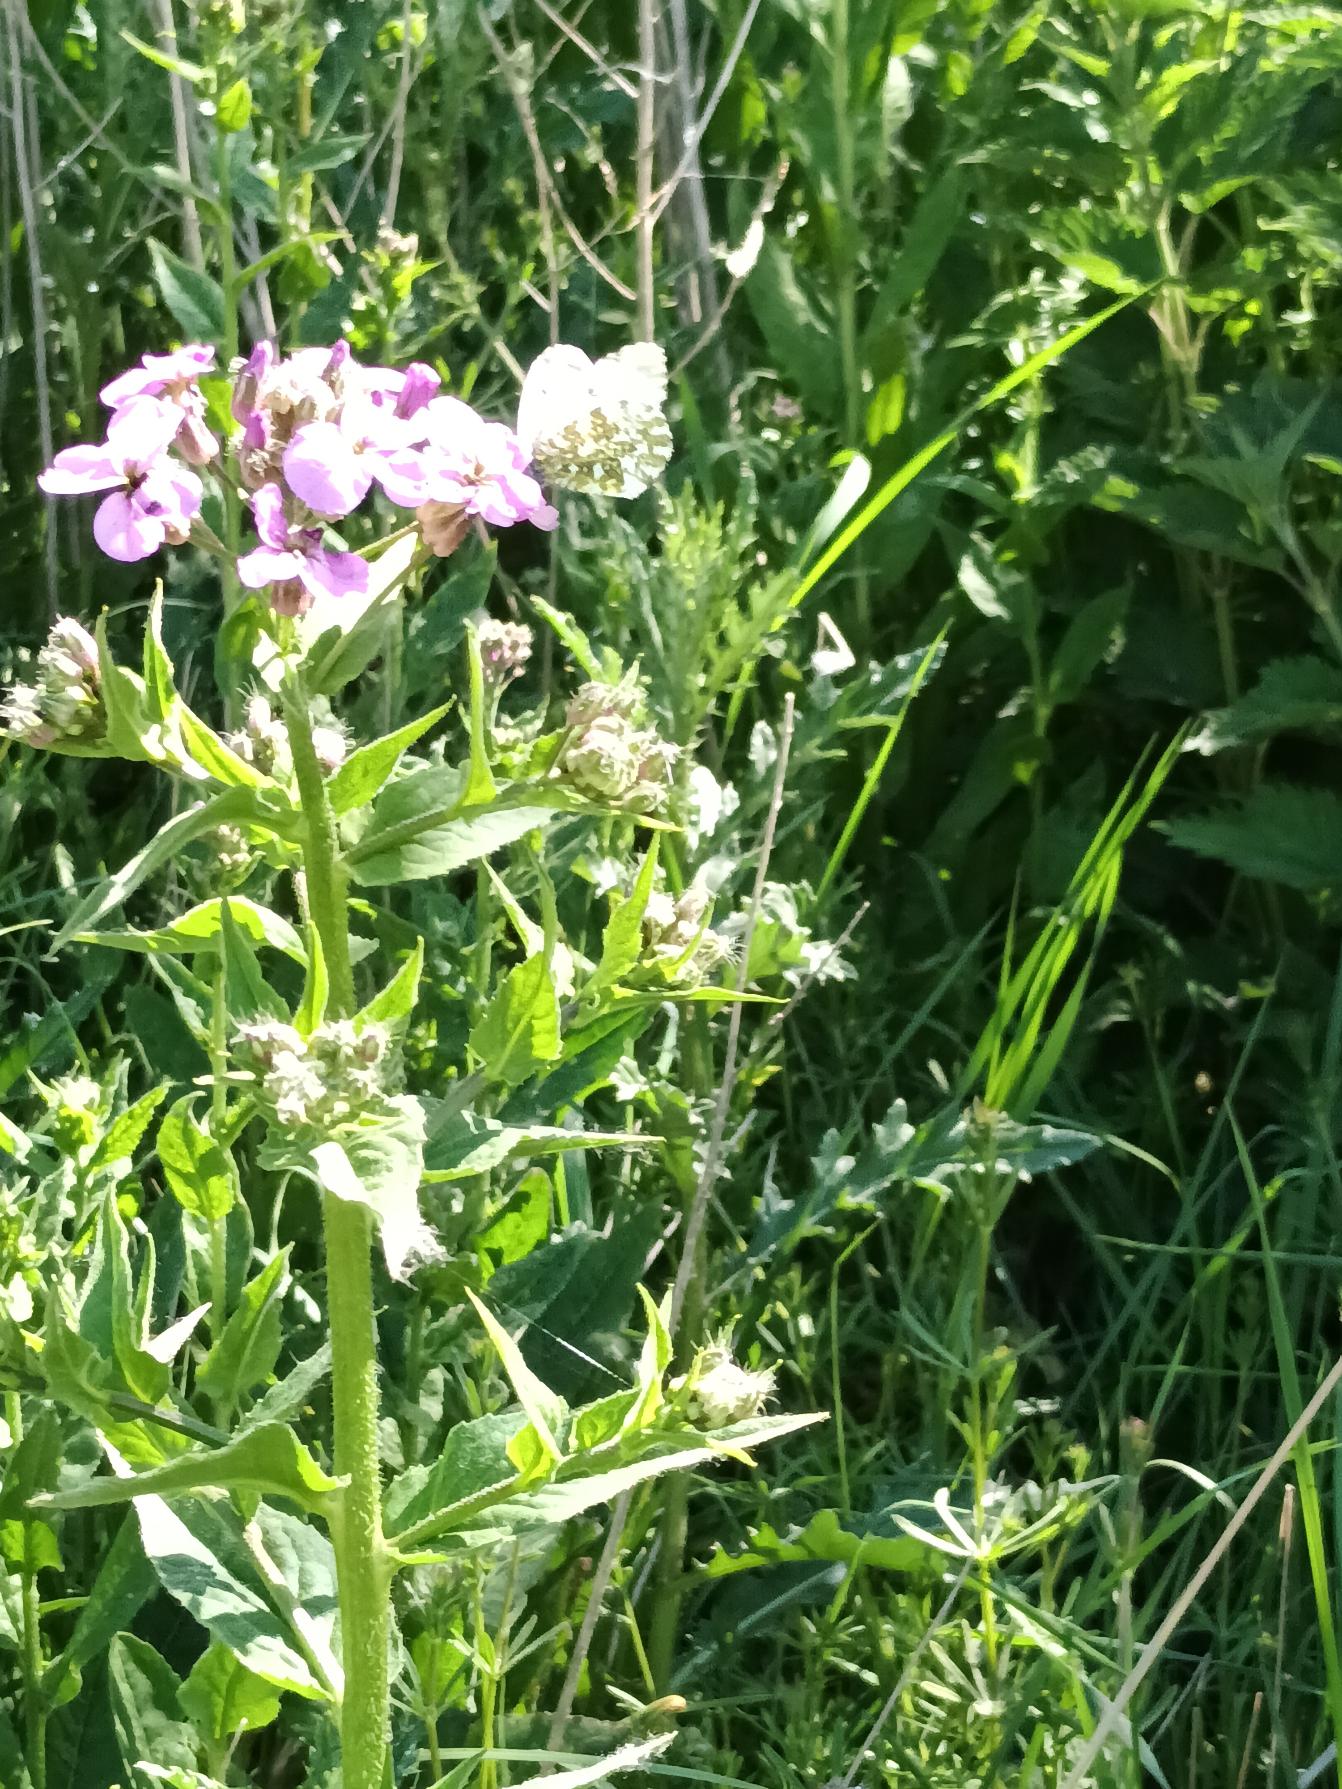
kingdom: Animalia
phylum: Arthropoda
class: Insecta
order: Lepidoptera
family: Pieridae
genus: Anthocharis
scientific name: Anthocharis cardamines
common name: Aurora
